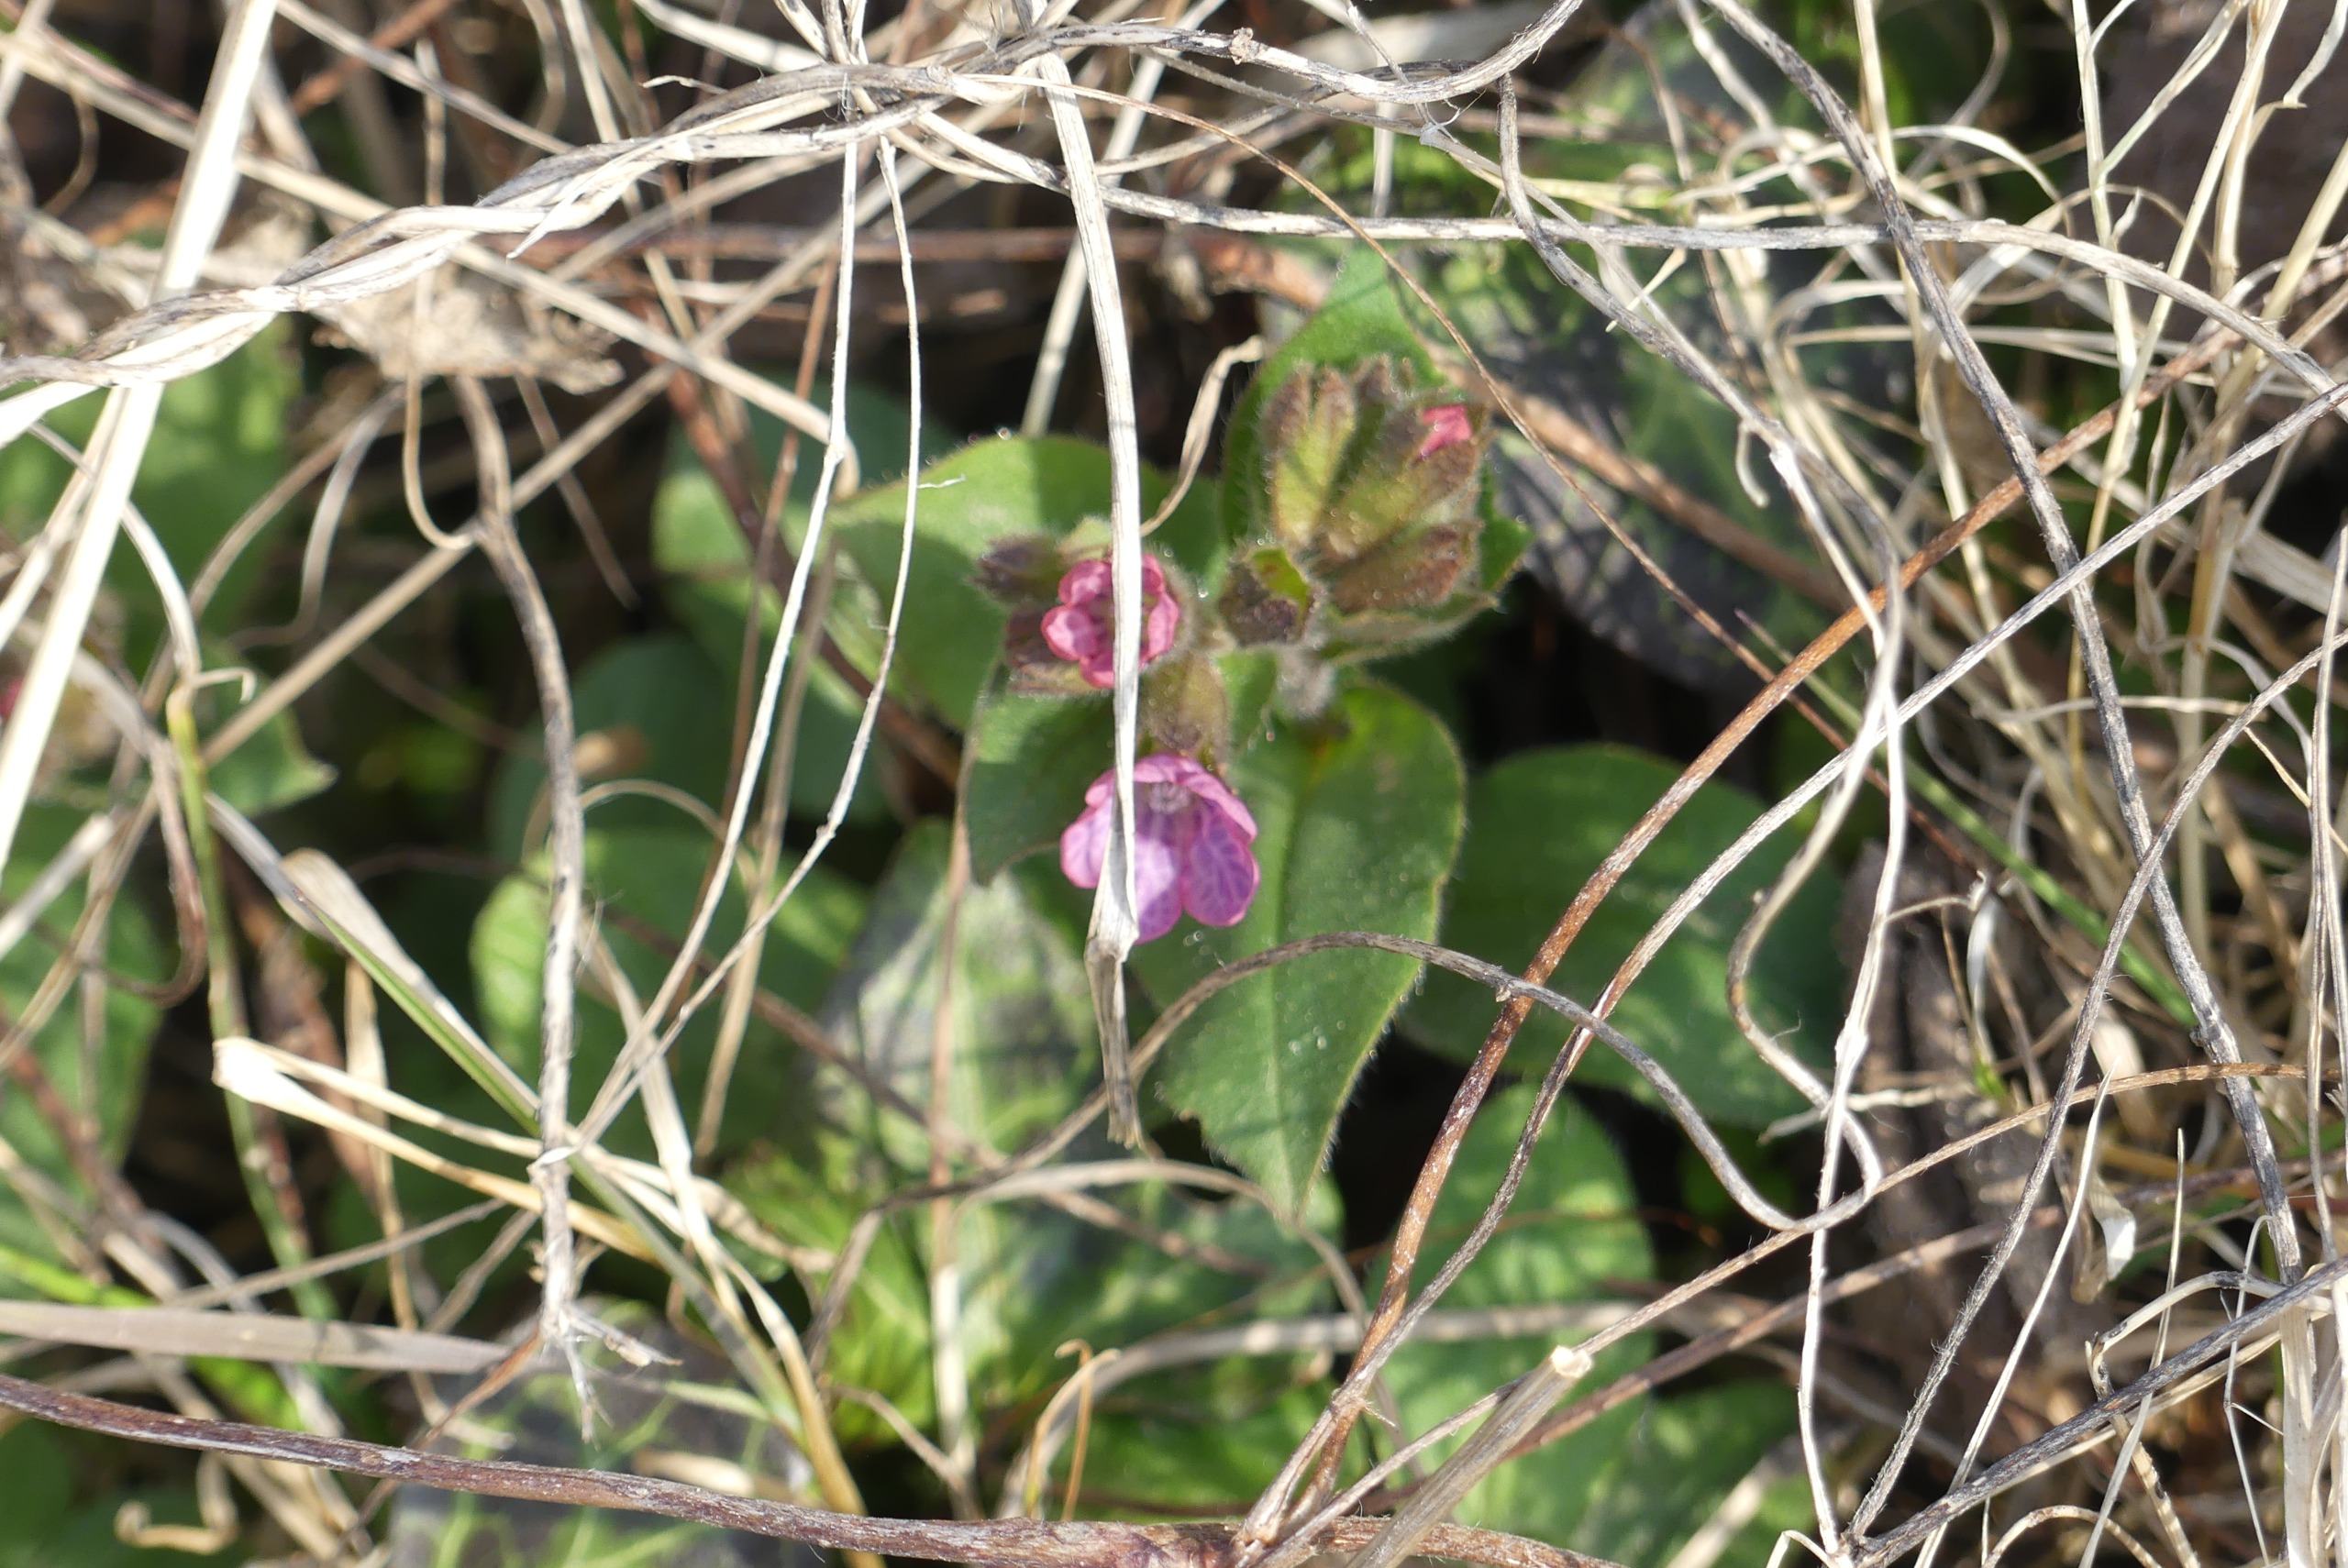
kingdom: Plantae
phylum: Tracheophyta
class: Magnoliopsida
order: Boraginales
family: Boraginaceae
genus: Pulmonaria
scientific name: Pulmonaria obscura
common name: Almindelig lungeurt
